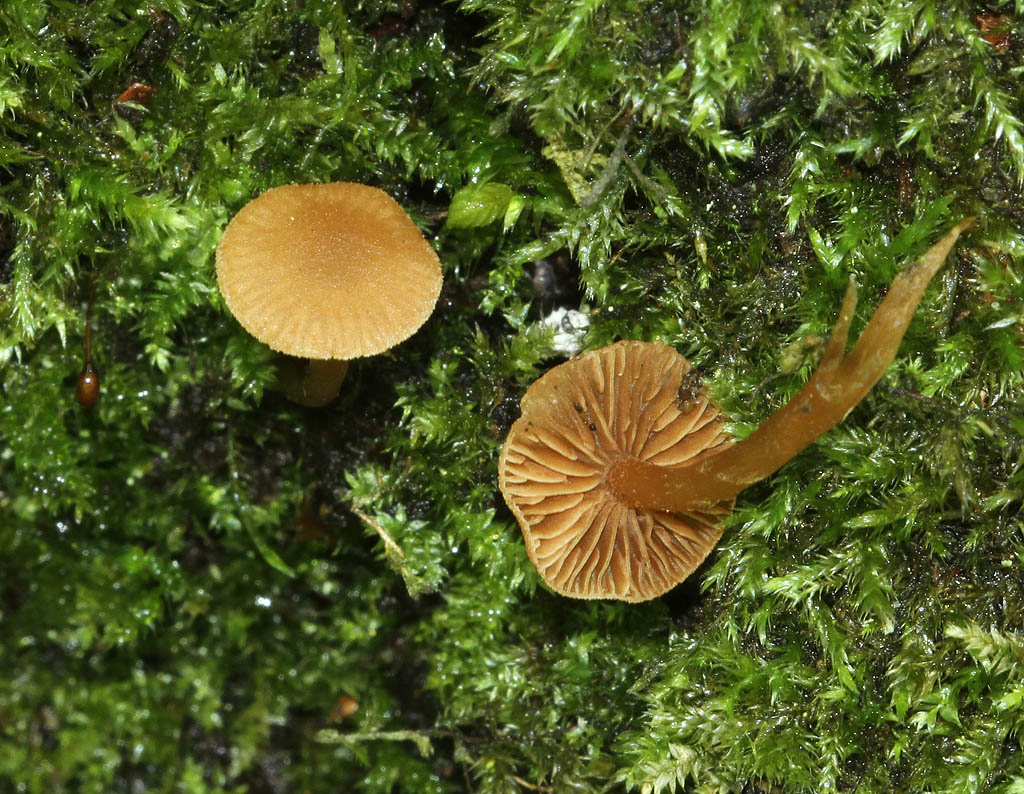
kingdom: Fungi
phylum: Basidiomycota
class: Agaricomycetes
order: Agaricales
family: Hymenogastraceae
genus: Naucoria
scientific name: Naucoria striatula
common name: stribet knaphat
